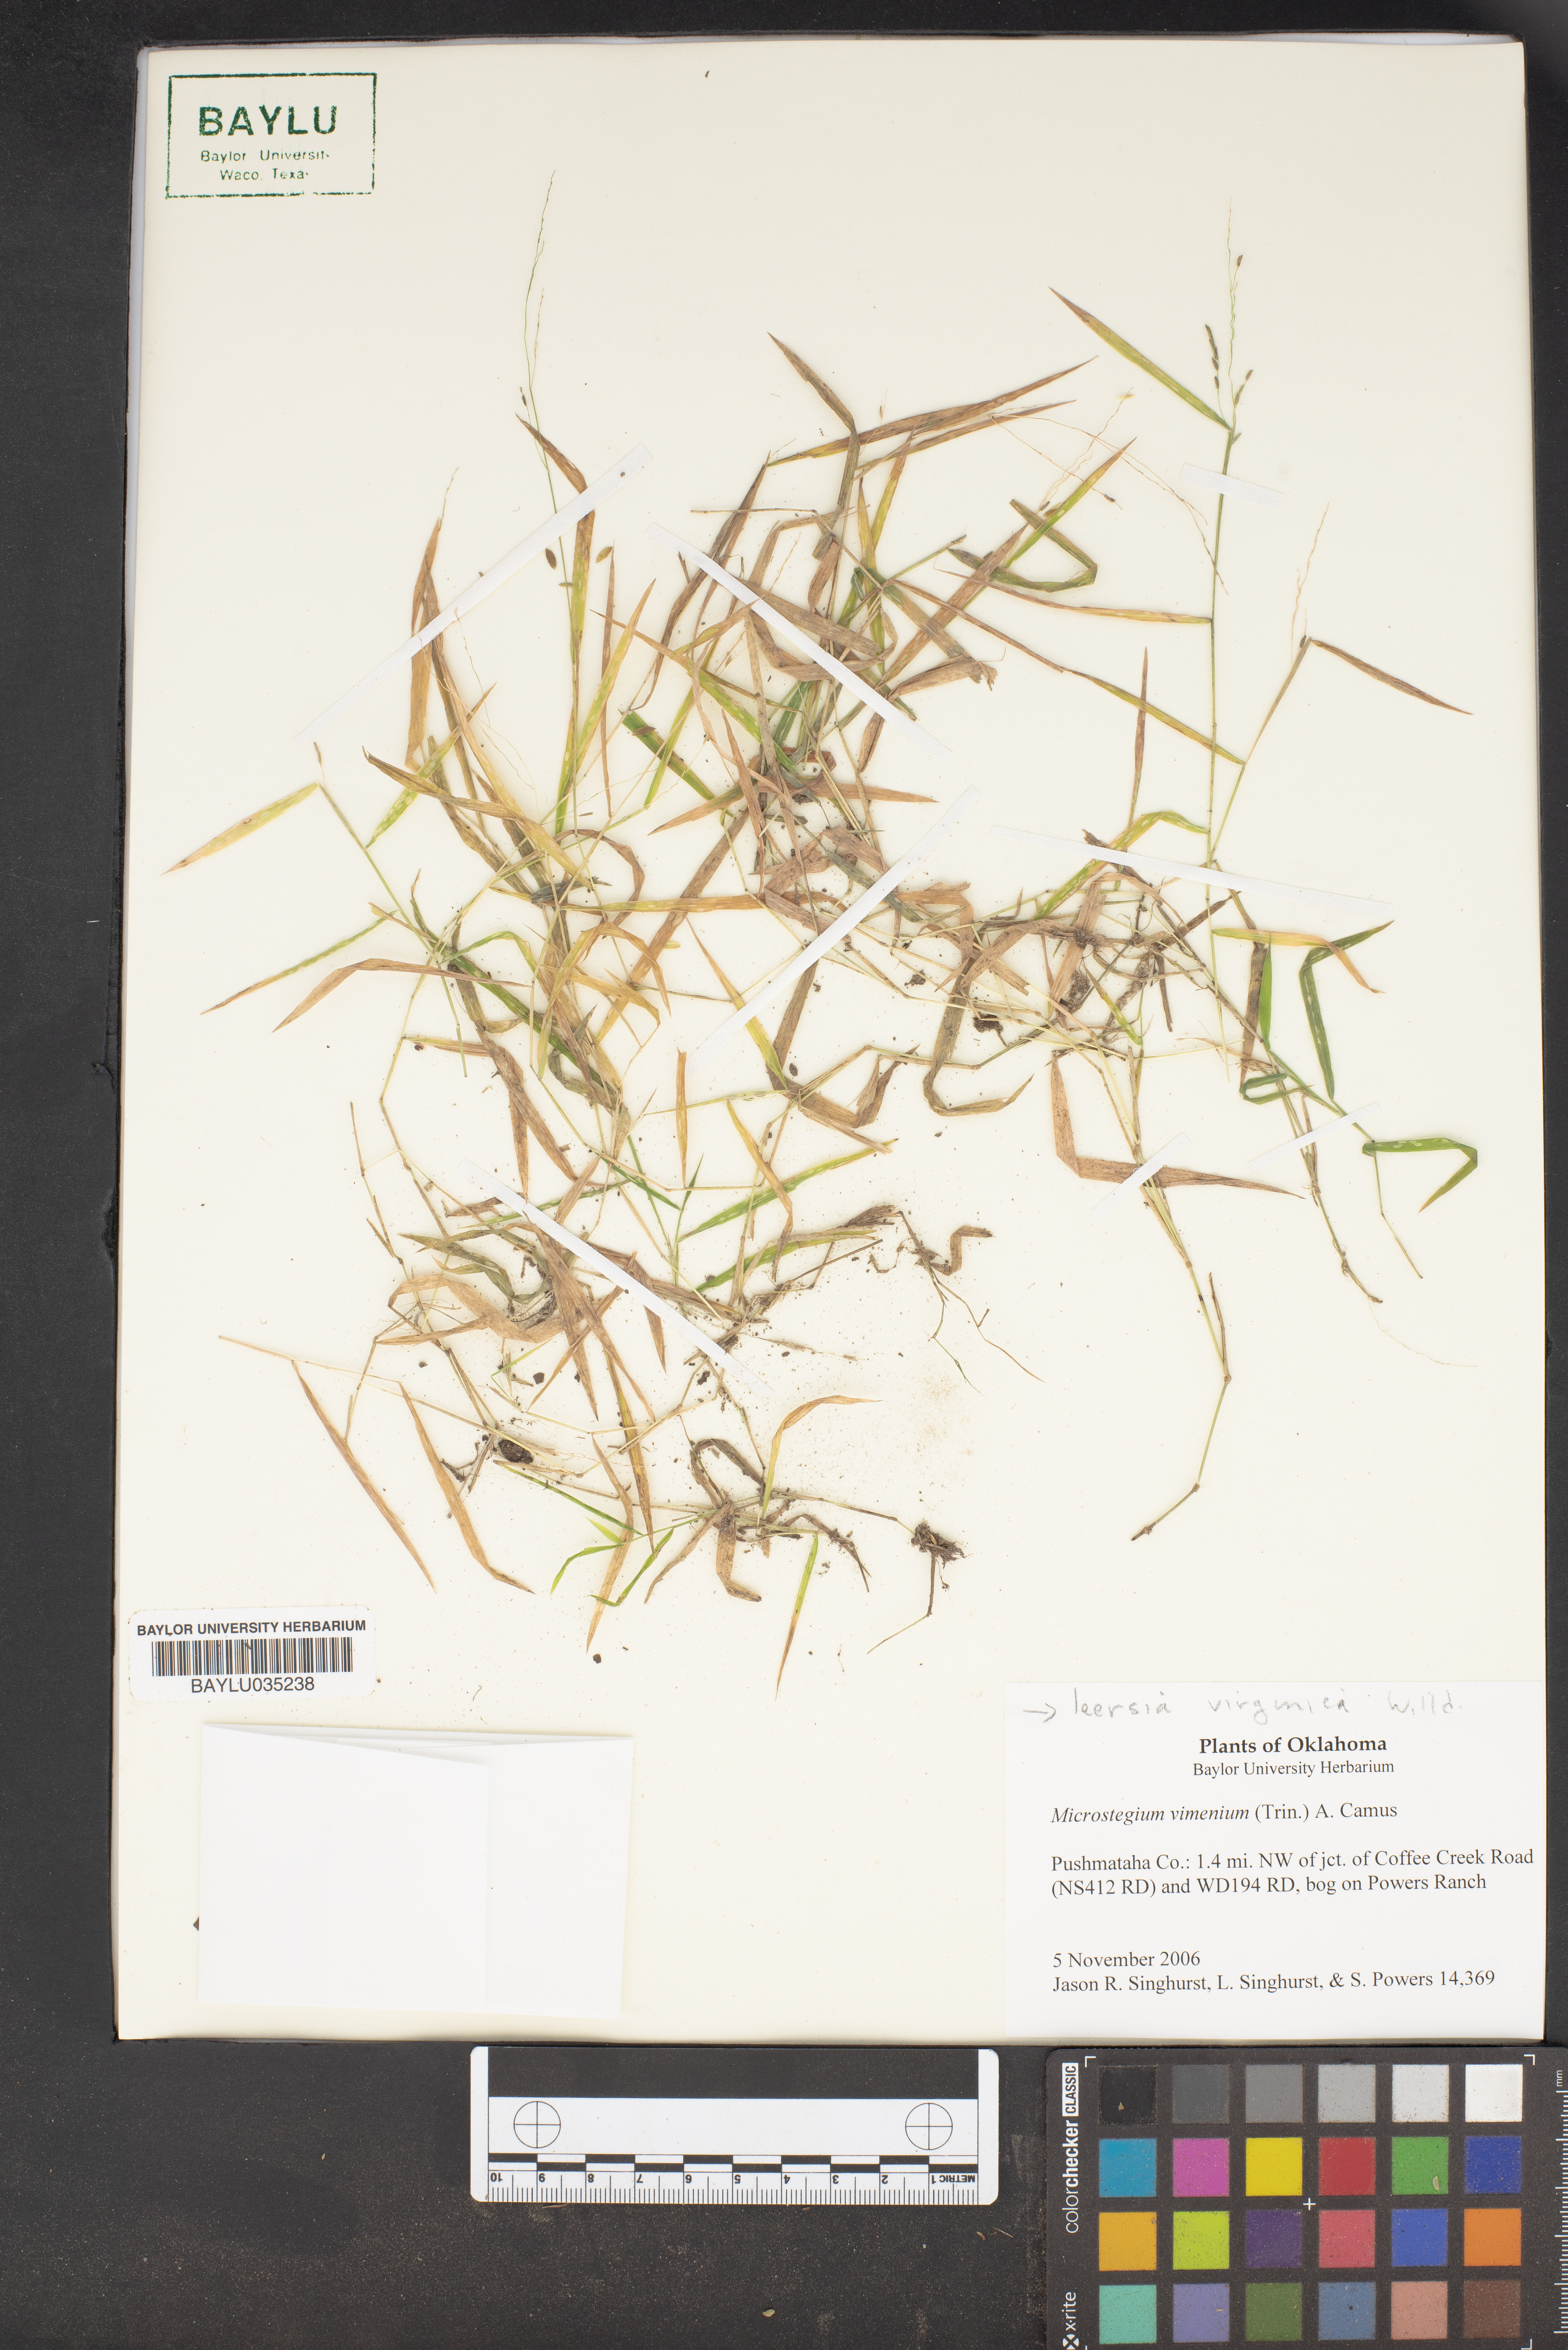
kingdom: Plantae
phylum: Tracheophyta
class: Liliopsida
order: Poales
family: Poaceae
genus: Microstegium
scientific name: Microstegium vimineum
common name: Japanese stiltgrass
